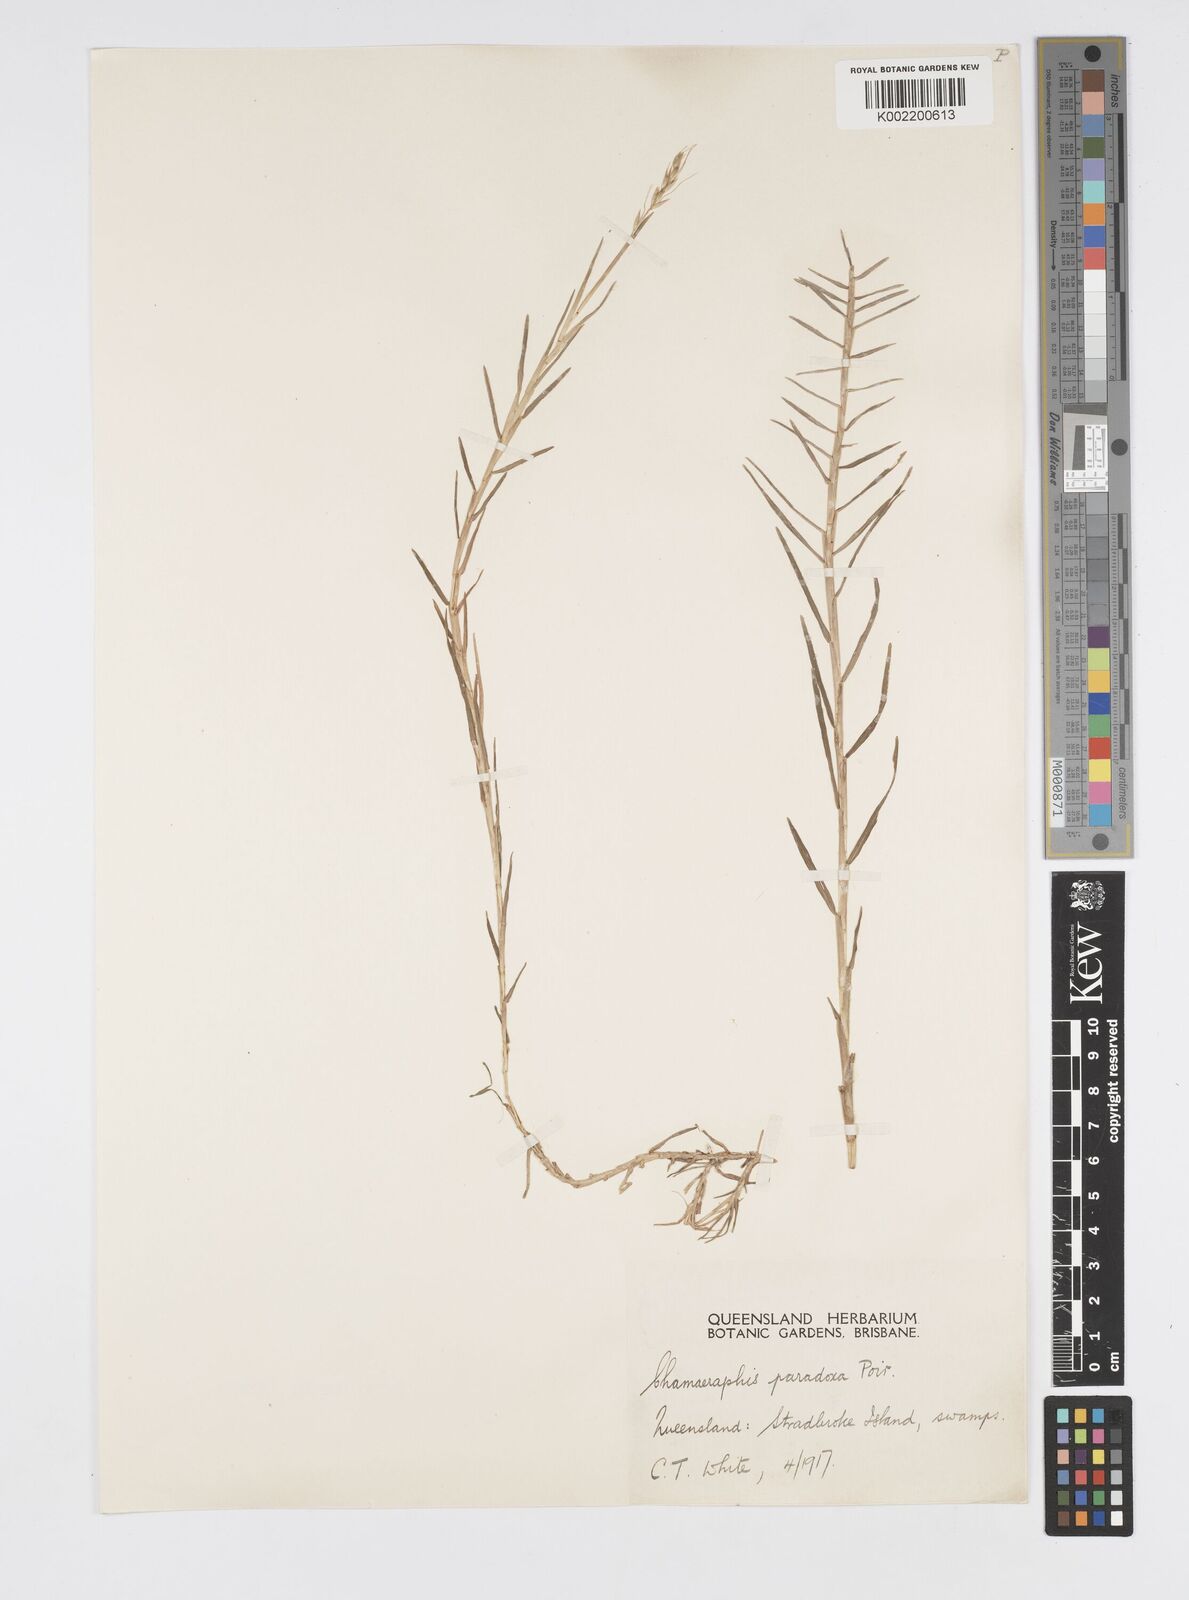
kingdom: Plantae
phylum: Tracheophyta
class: Liliopsida
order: Poales
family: Poaceae
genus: Pseudoraphis
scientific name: Pseudoraphis paradoxa
